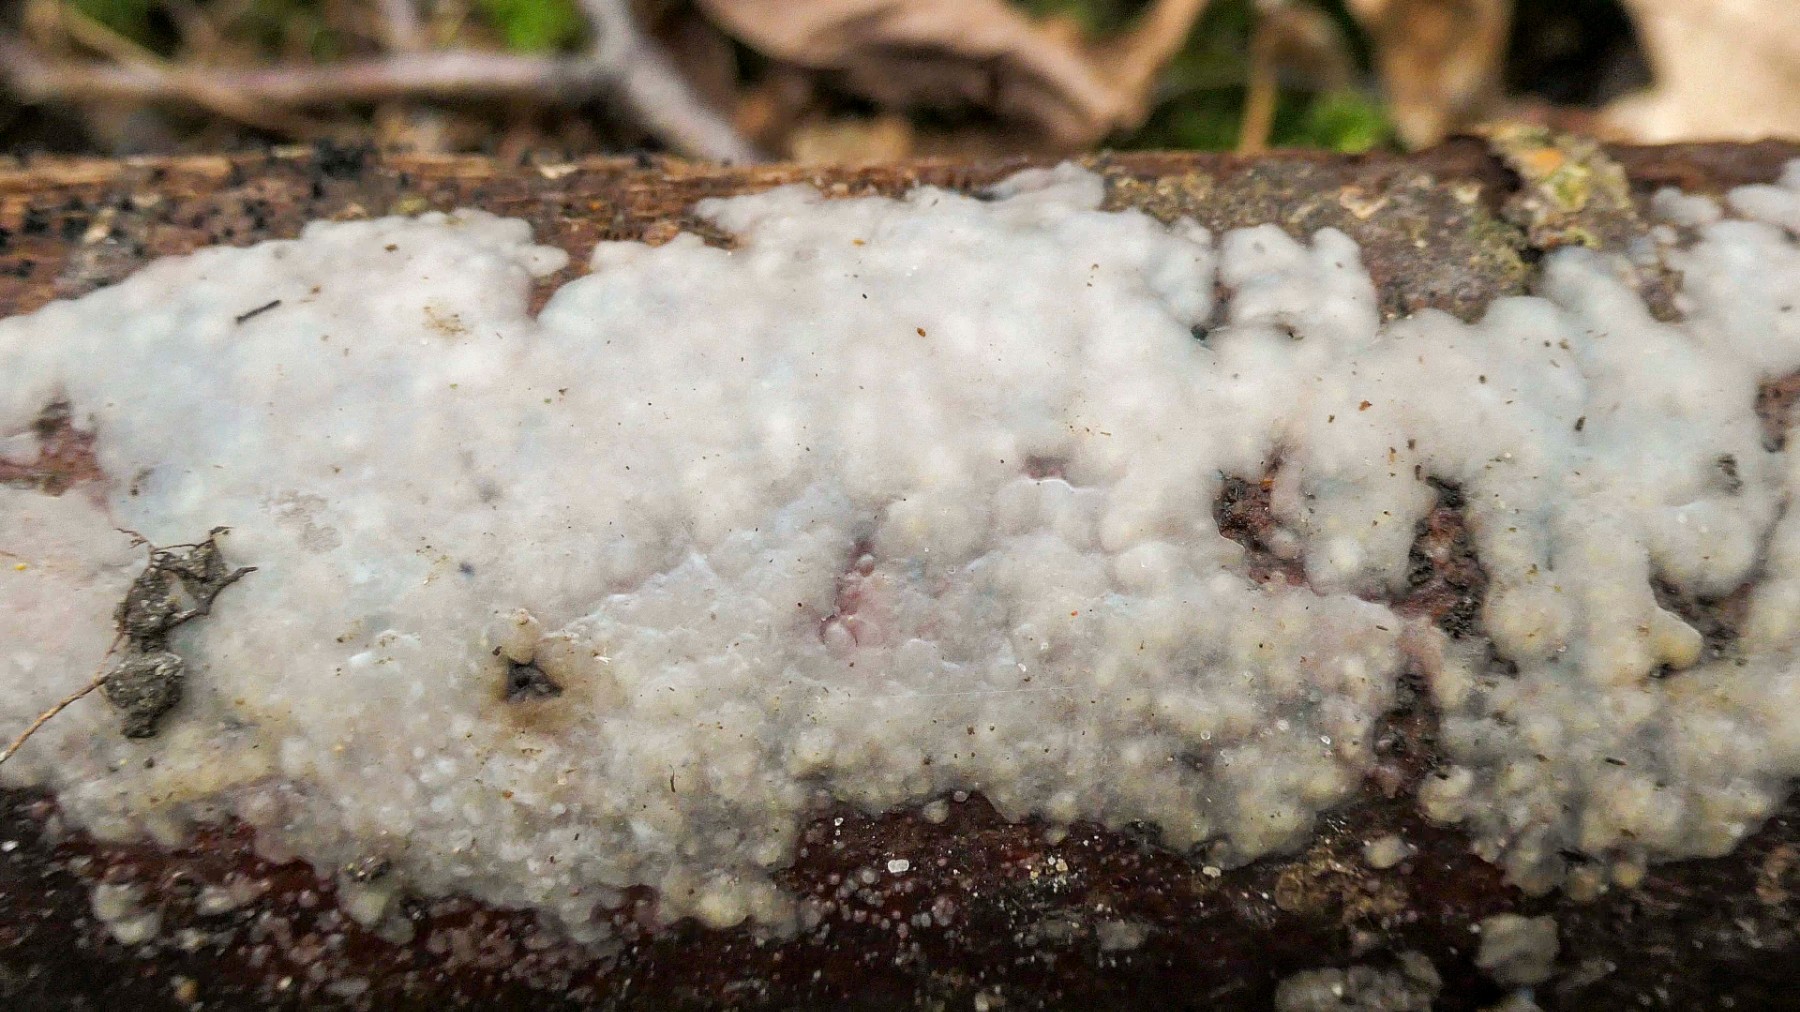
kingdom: Fungi
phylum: Basidiomycota
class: Tremellomycetes
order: Tremellales
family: Exidiaceae
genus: Exidiopsis
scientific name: Exidiopsis effusa
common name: smuk bævrehinde
